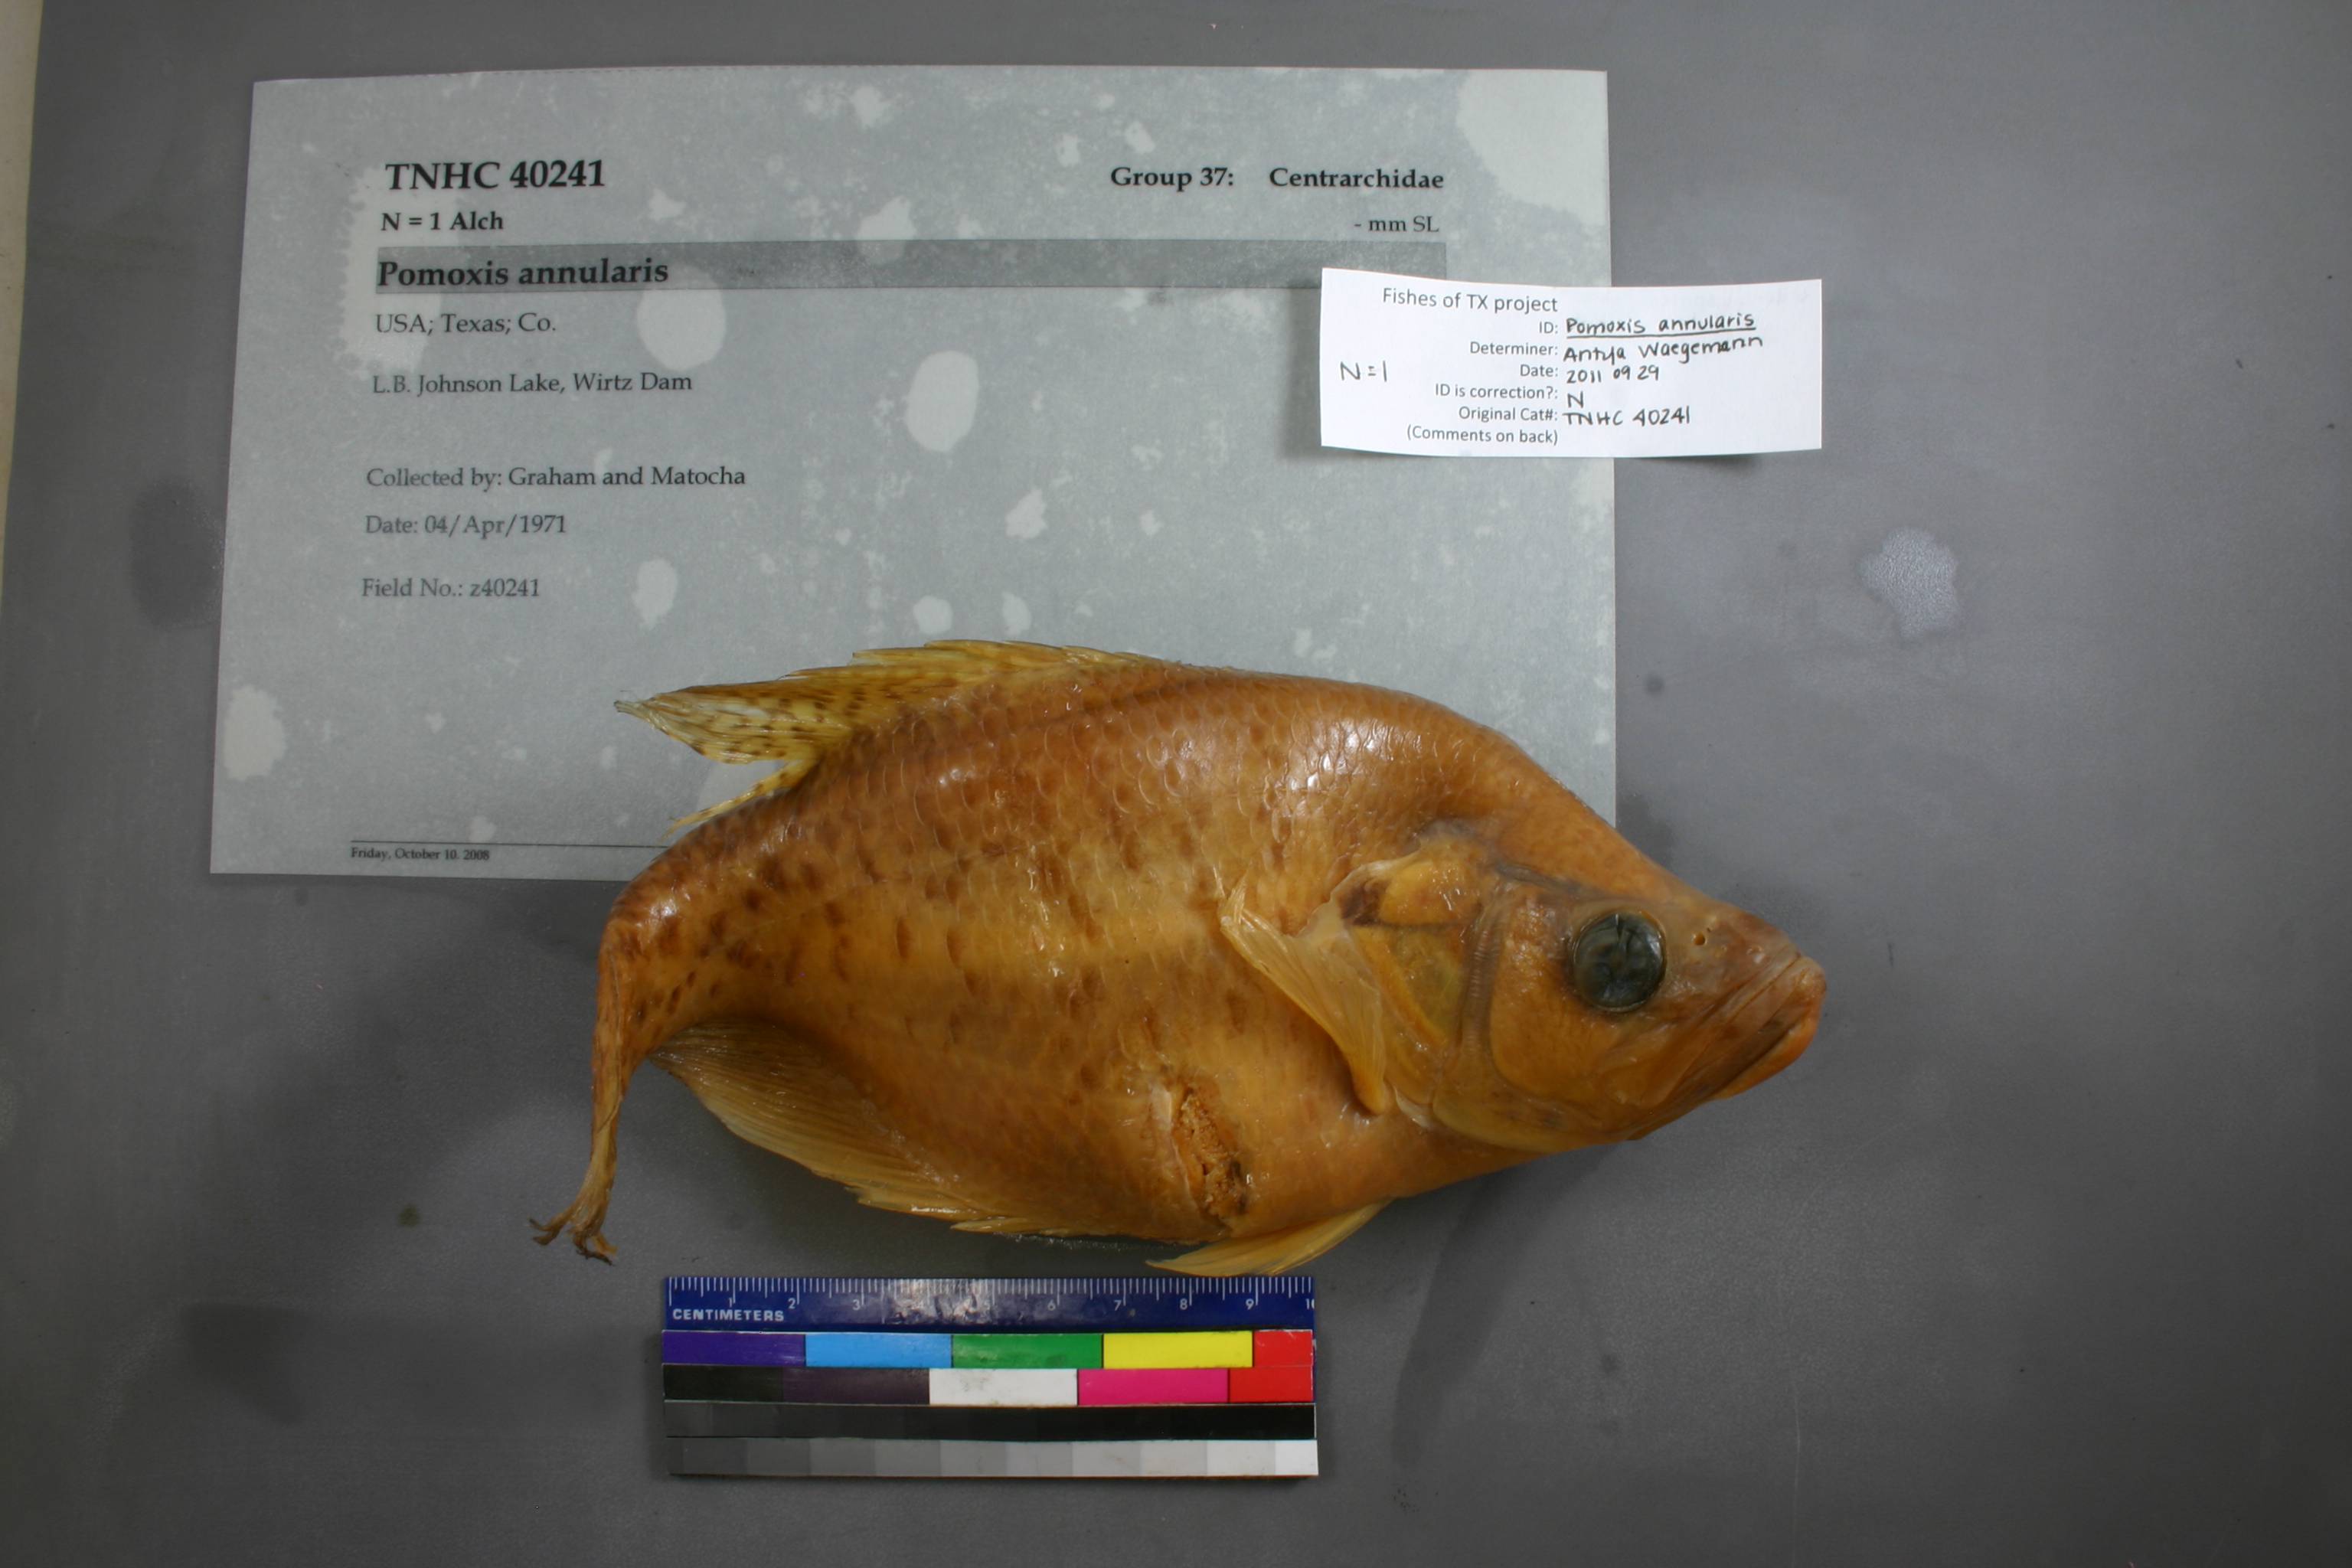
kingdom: Animalia
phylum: Chordata
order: Perciformes
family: Centrarchidae
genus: Pomoxis
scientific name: Pomoxis annularis
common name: White crappie
